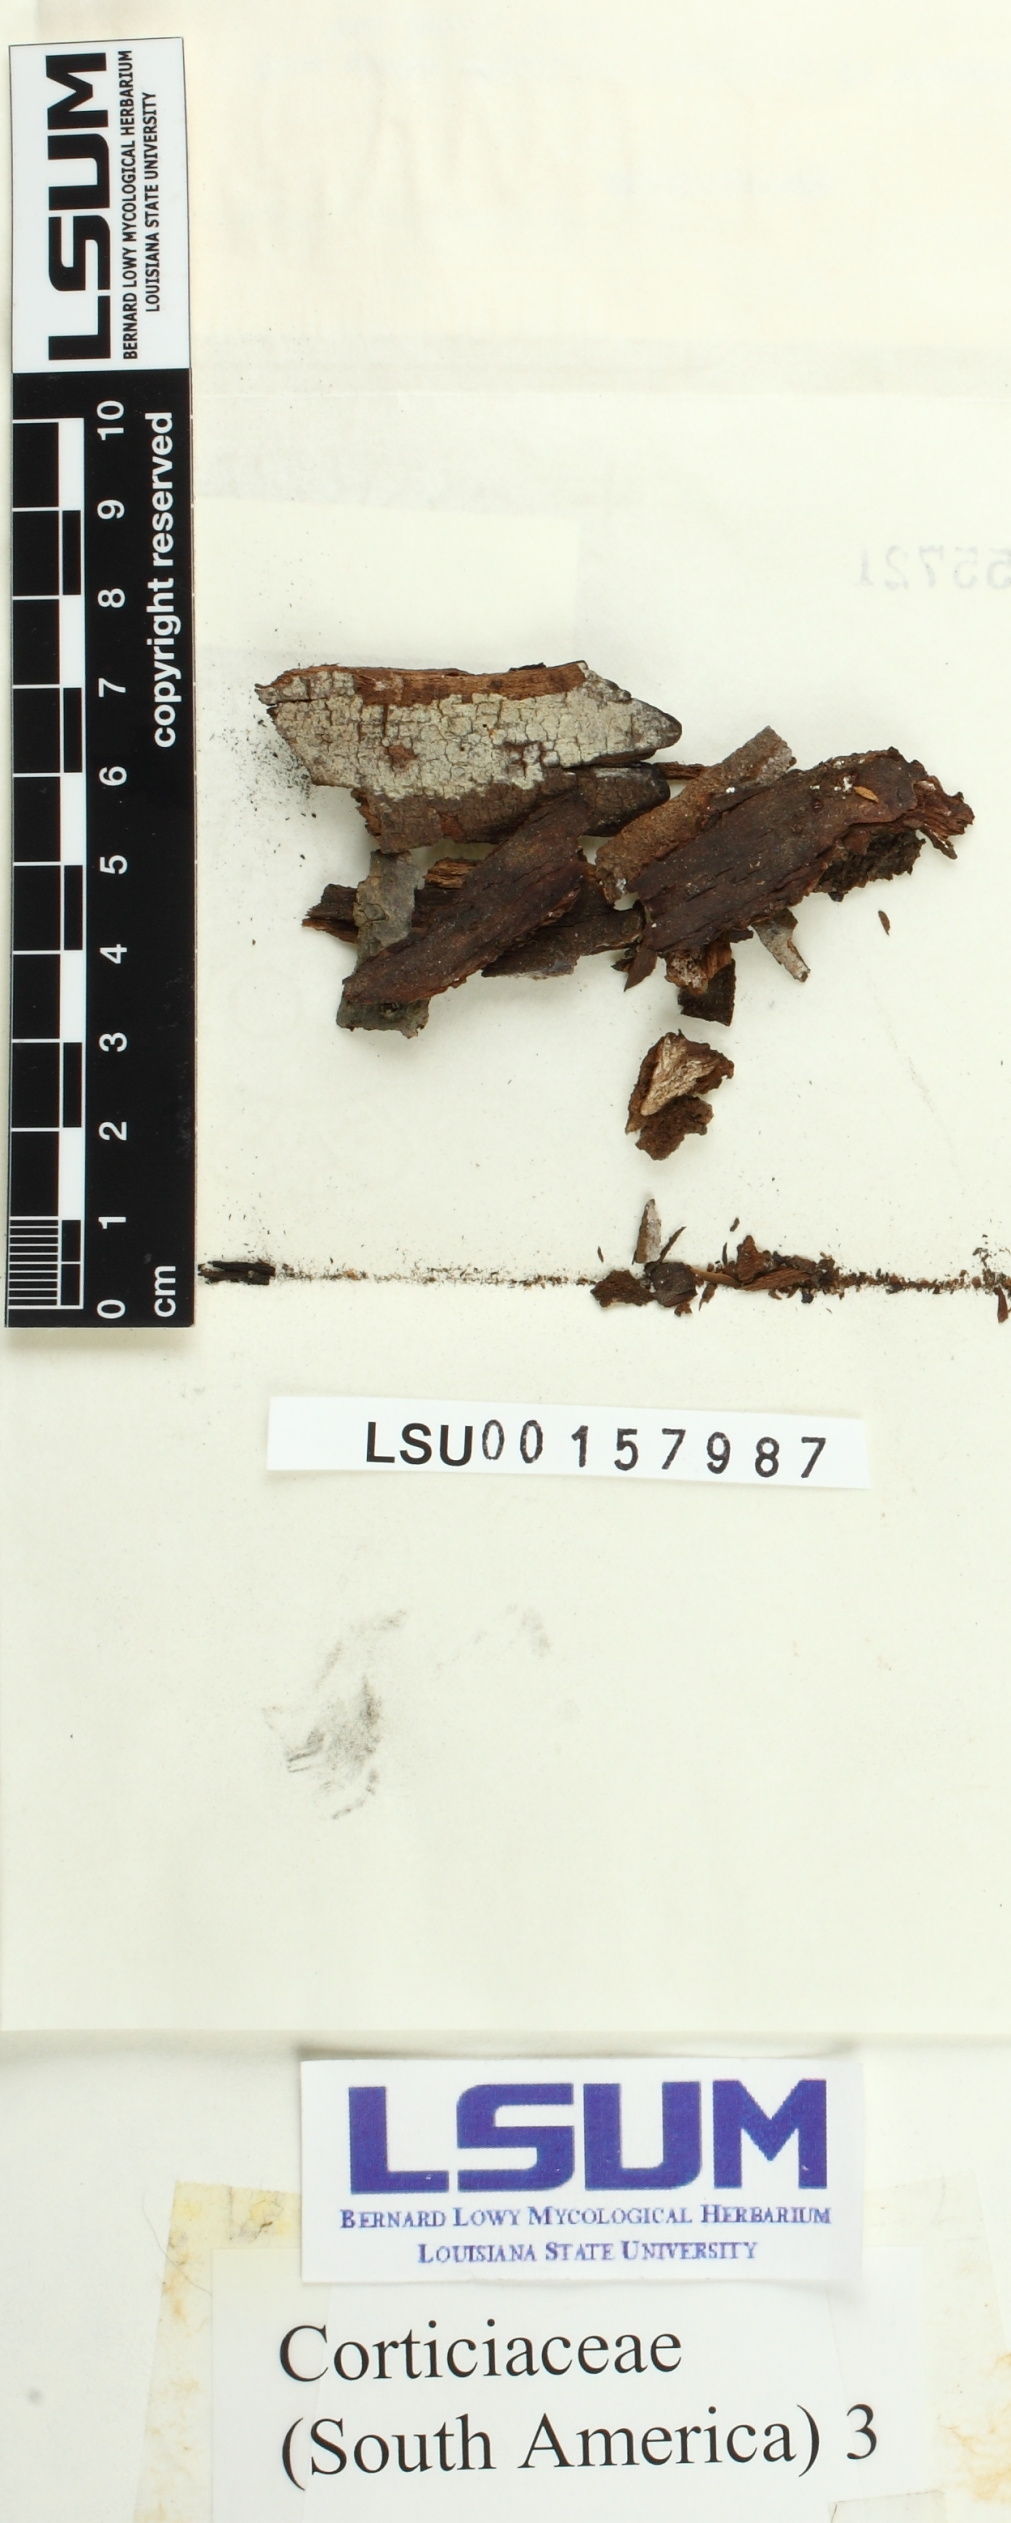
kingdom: Fungi
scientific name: Fungi
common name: Fungi
